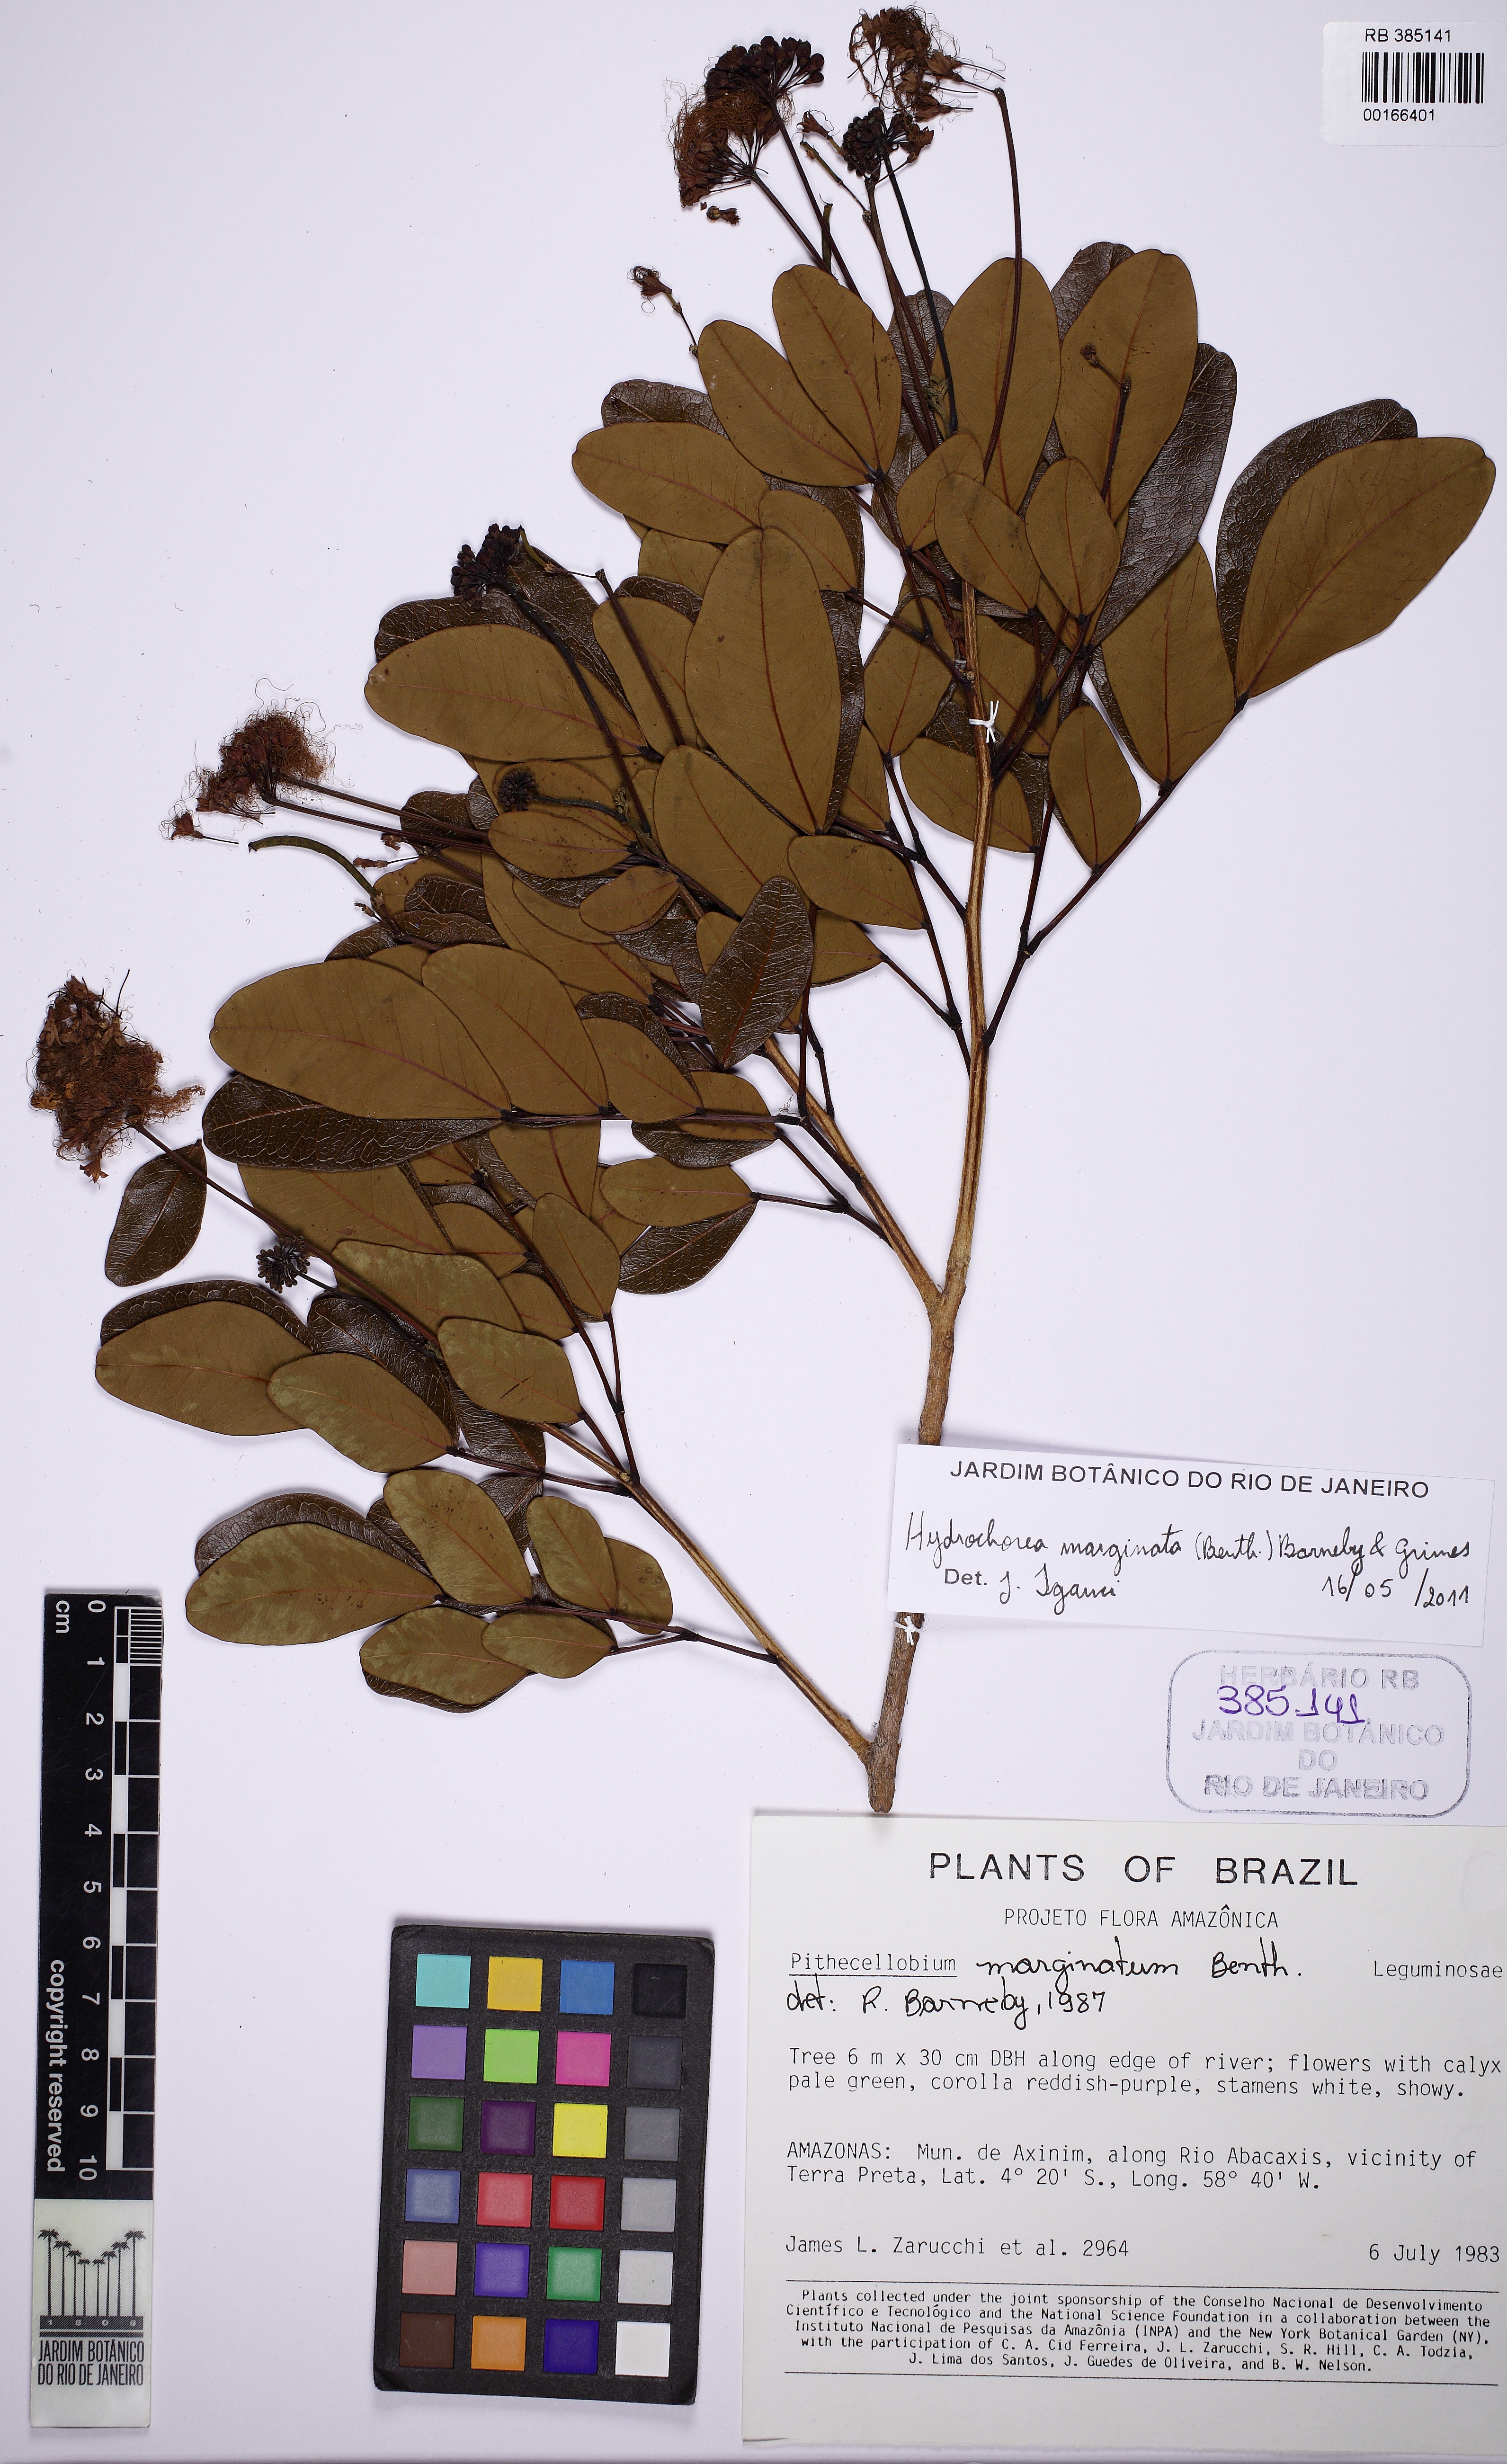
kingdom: Plantae
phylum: Tracheophyta
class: Magnoliopsida
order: Fabales
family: Fabaceae
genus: Hydrochorea
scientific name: Hydrochorea marginata
